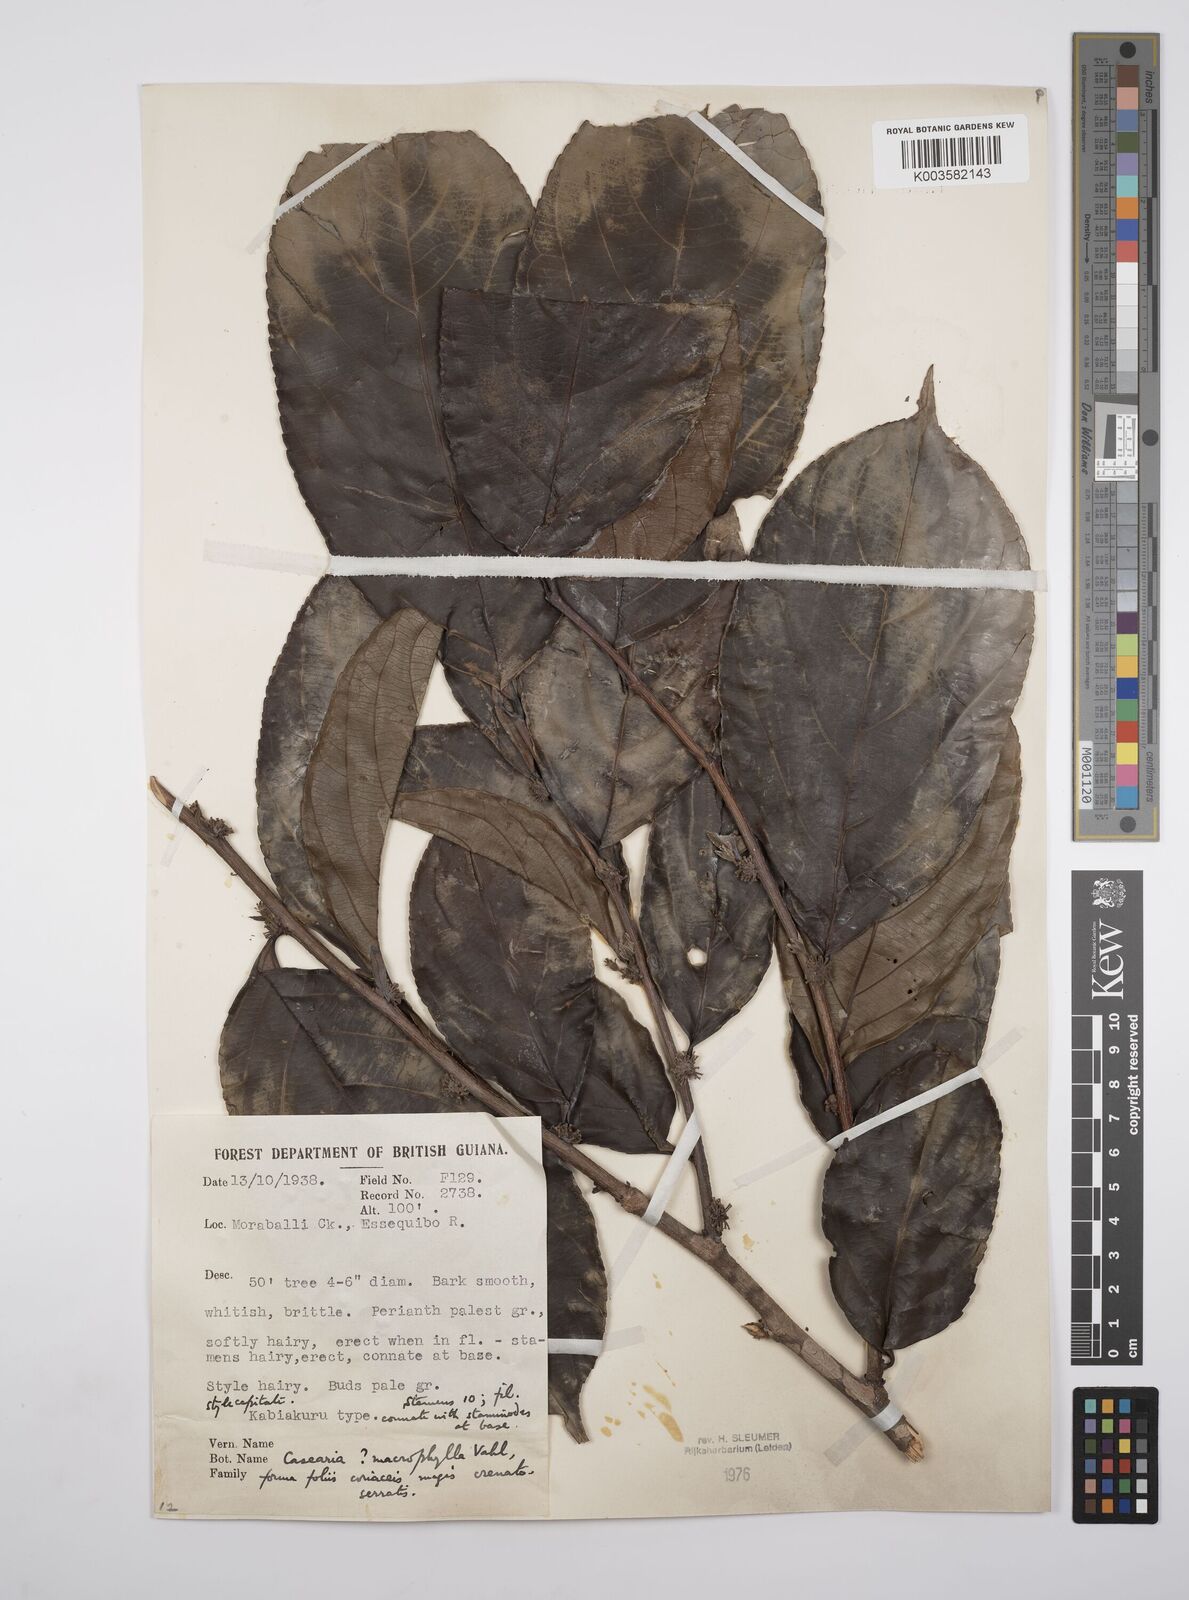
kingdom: Plantae
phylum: Tracheophyta
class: Magnoliopsida
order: Malpighiales
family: Salicaceae
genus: Casearia
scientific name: Casearia pitumba
